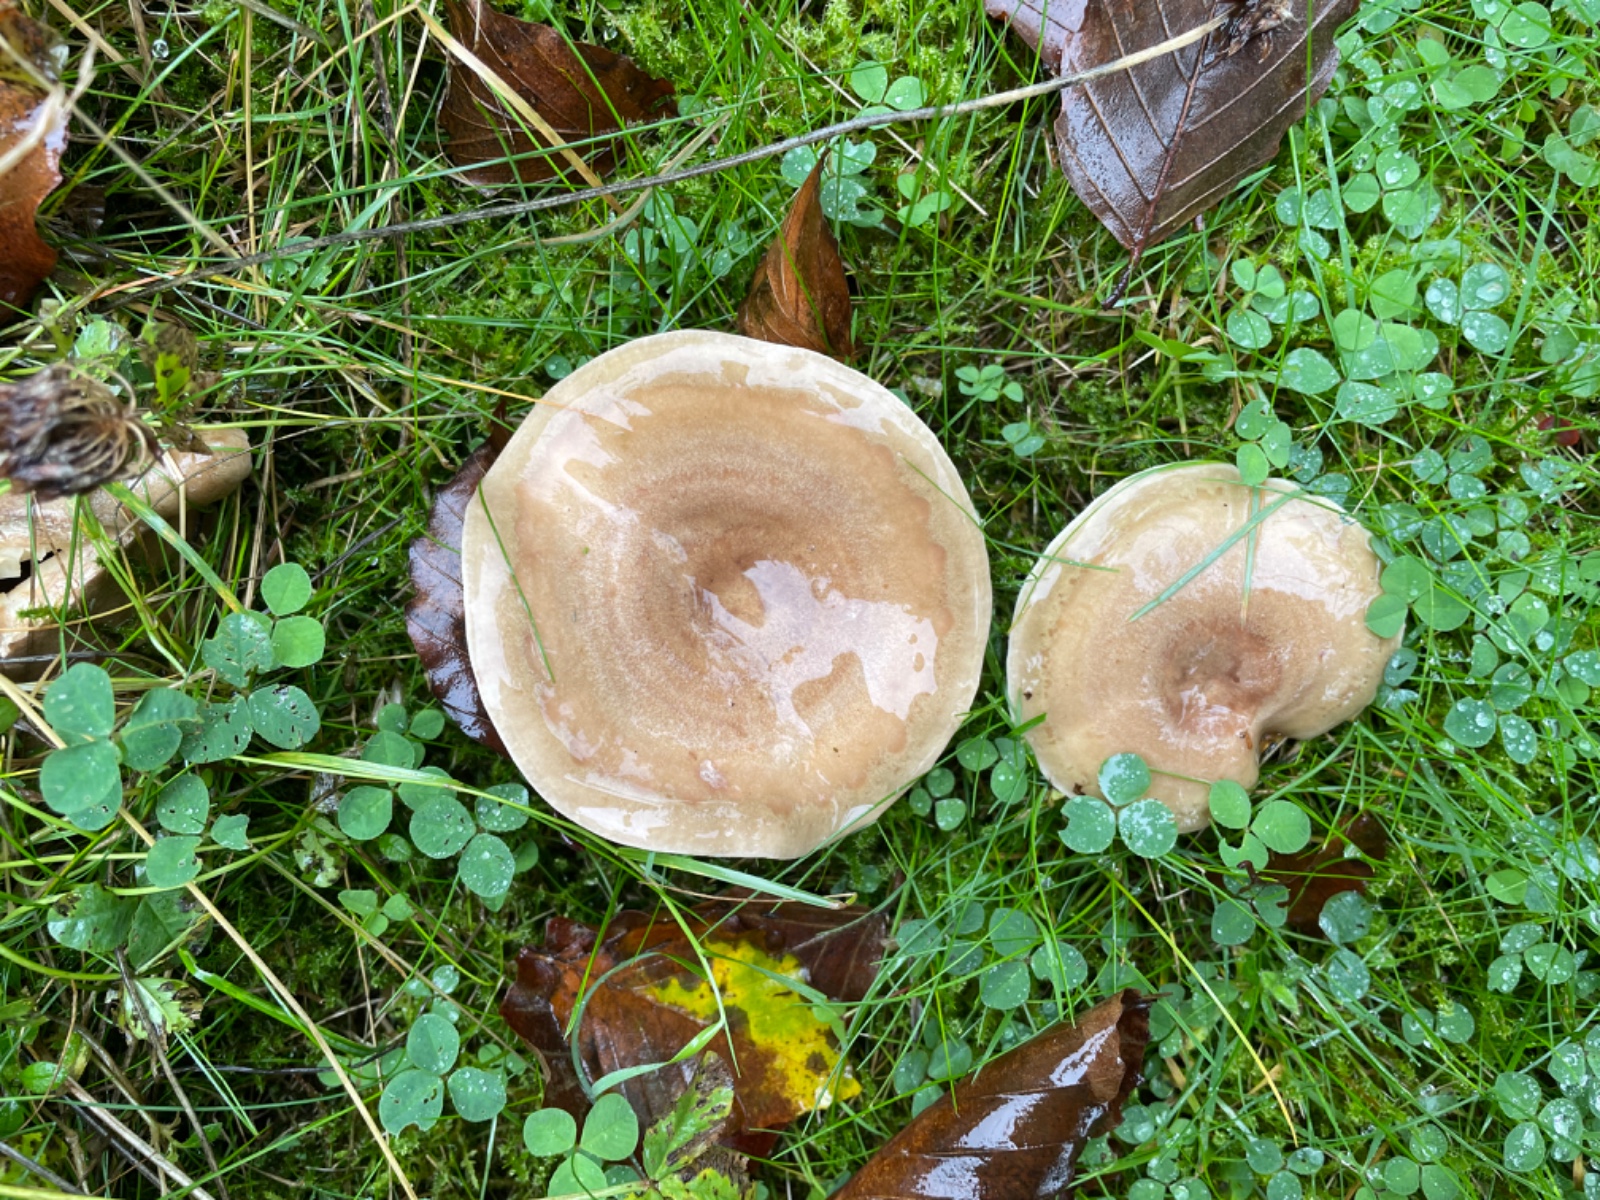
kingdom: Fungi
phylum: Basidiomycota
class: Agaricomycetes
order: Russulales
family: Russulaceae
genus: Lactarius
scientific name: Lactarius fluens
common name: lysrandet mælkehat
